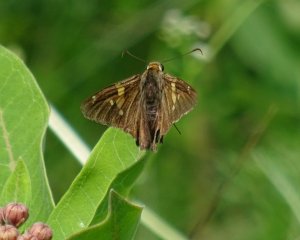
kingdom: Animalia
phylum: Arthropoda
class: Insecta
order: Lepidoptera
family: Hesperiidae
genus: Epargyreus
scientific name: Epargyreus clarus
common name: Silver-spotted Skipper
